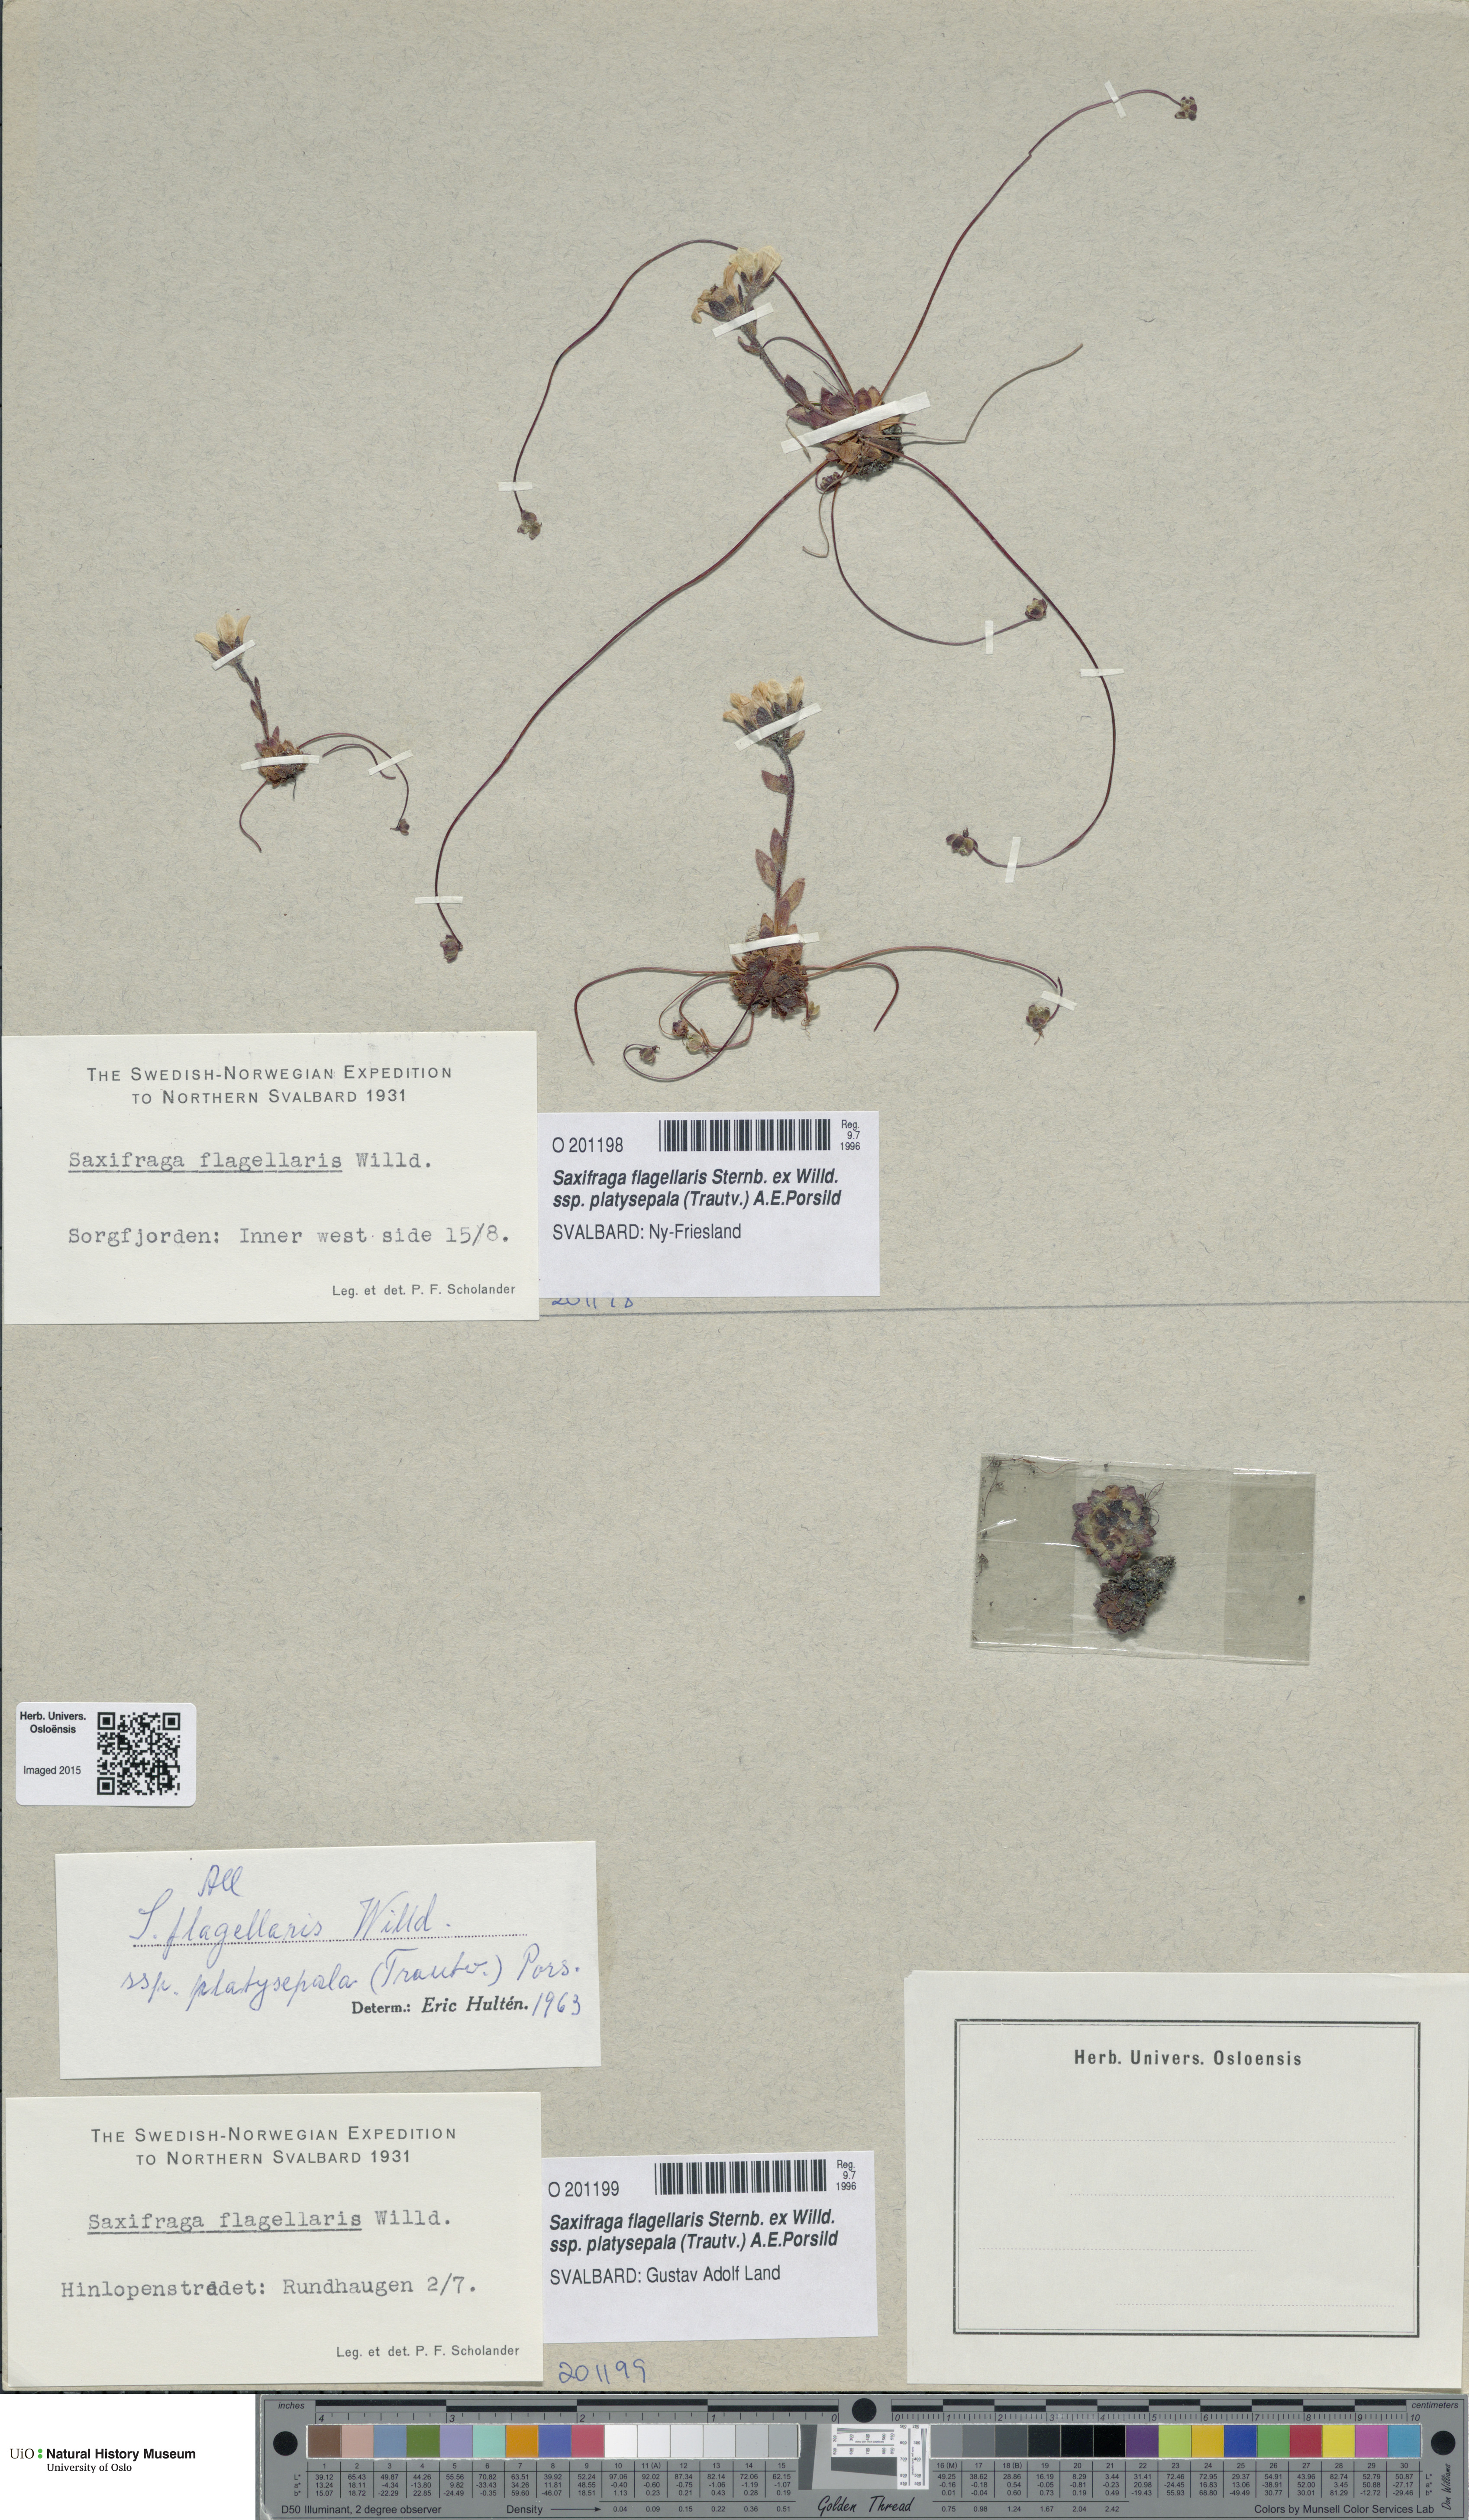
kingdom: Plantae
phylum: Tracheophyta
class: Magnoliopsida
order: Saxifragales
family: Saxifragaceae
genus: Saxifraga
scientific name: Saxifraga platysepala
